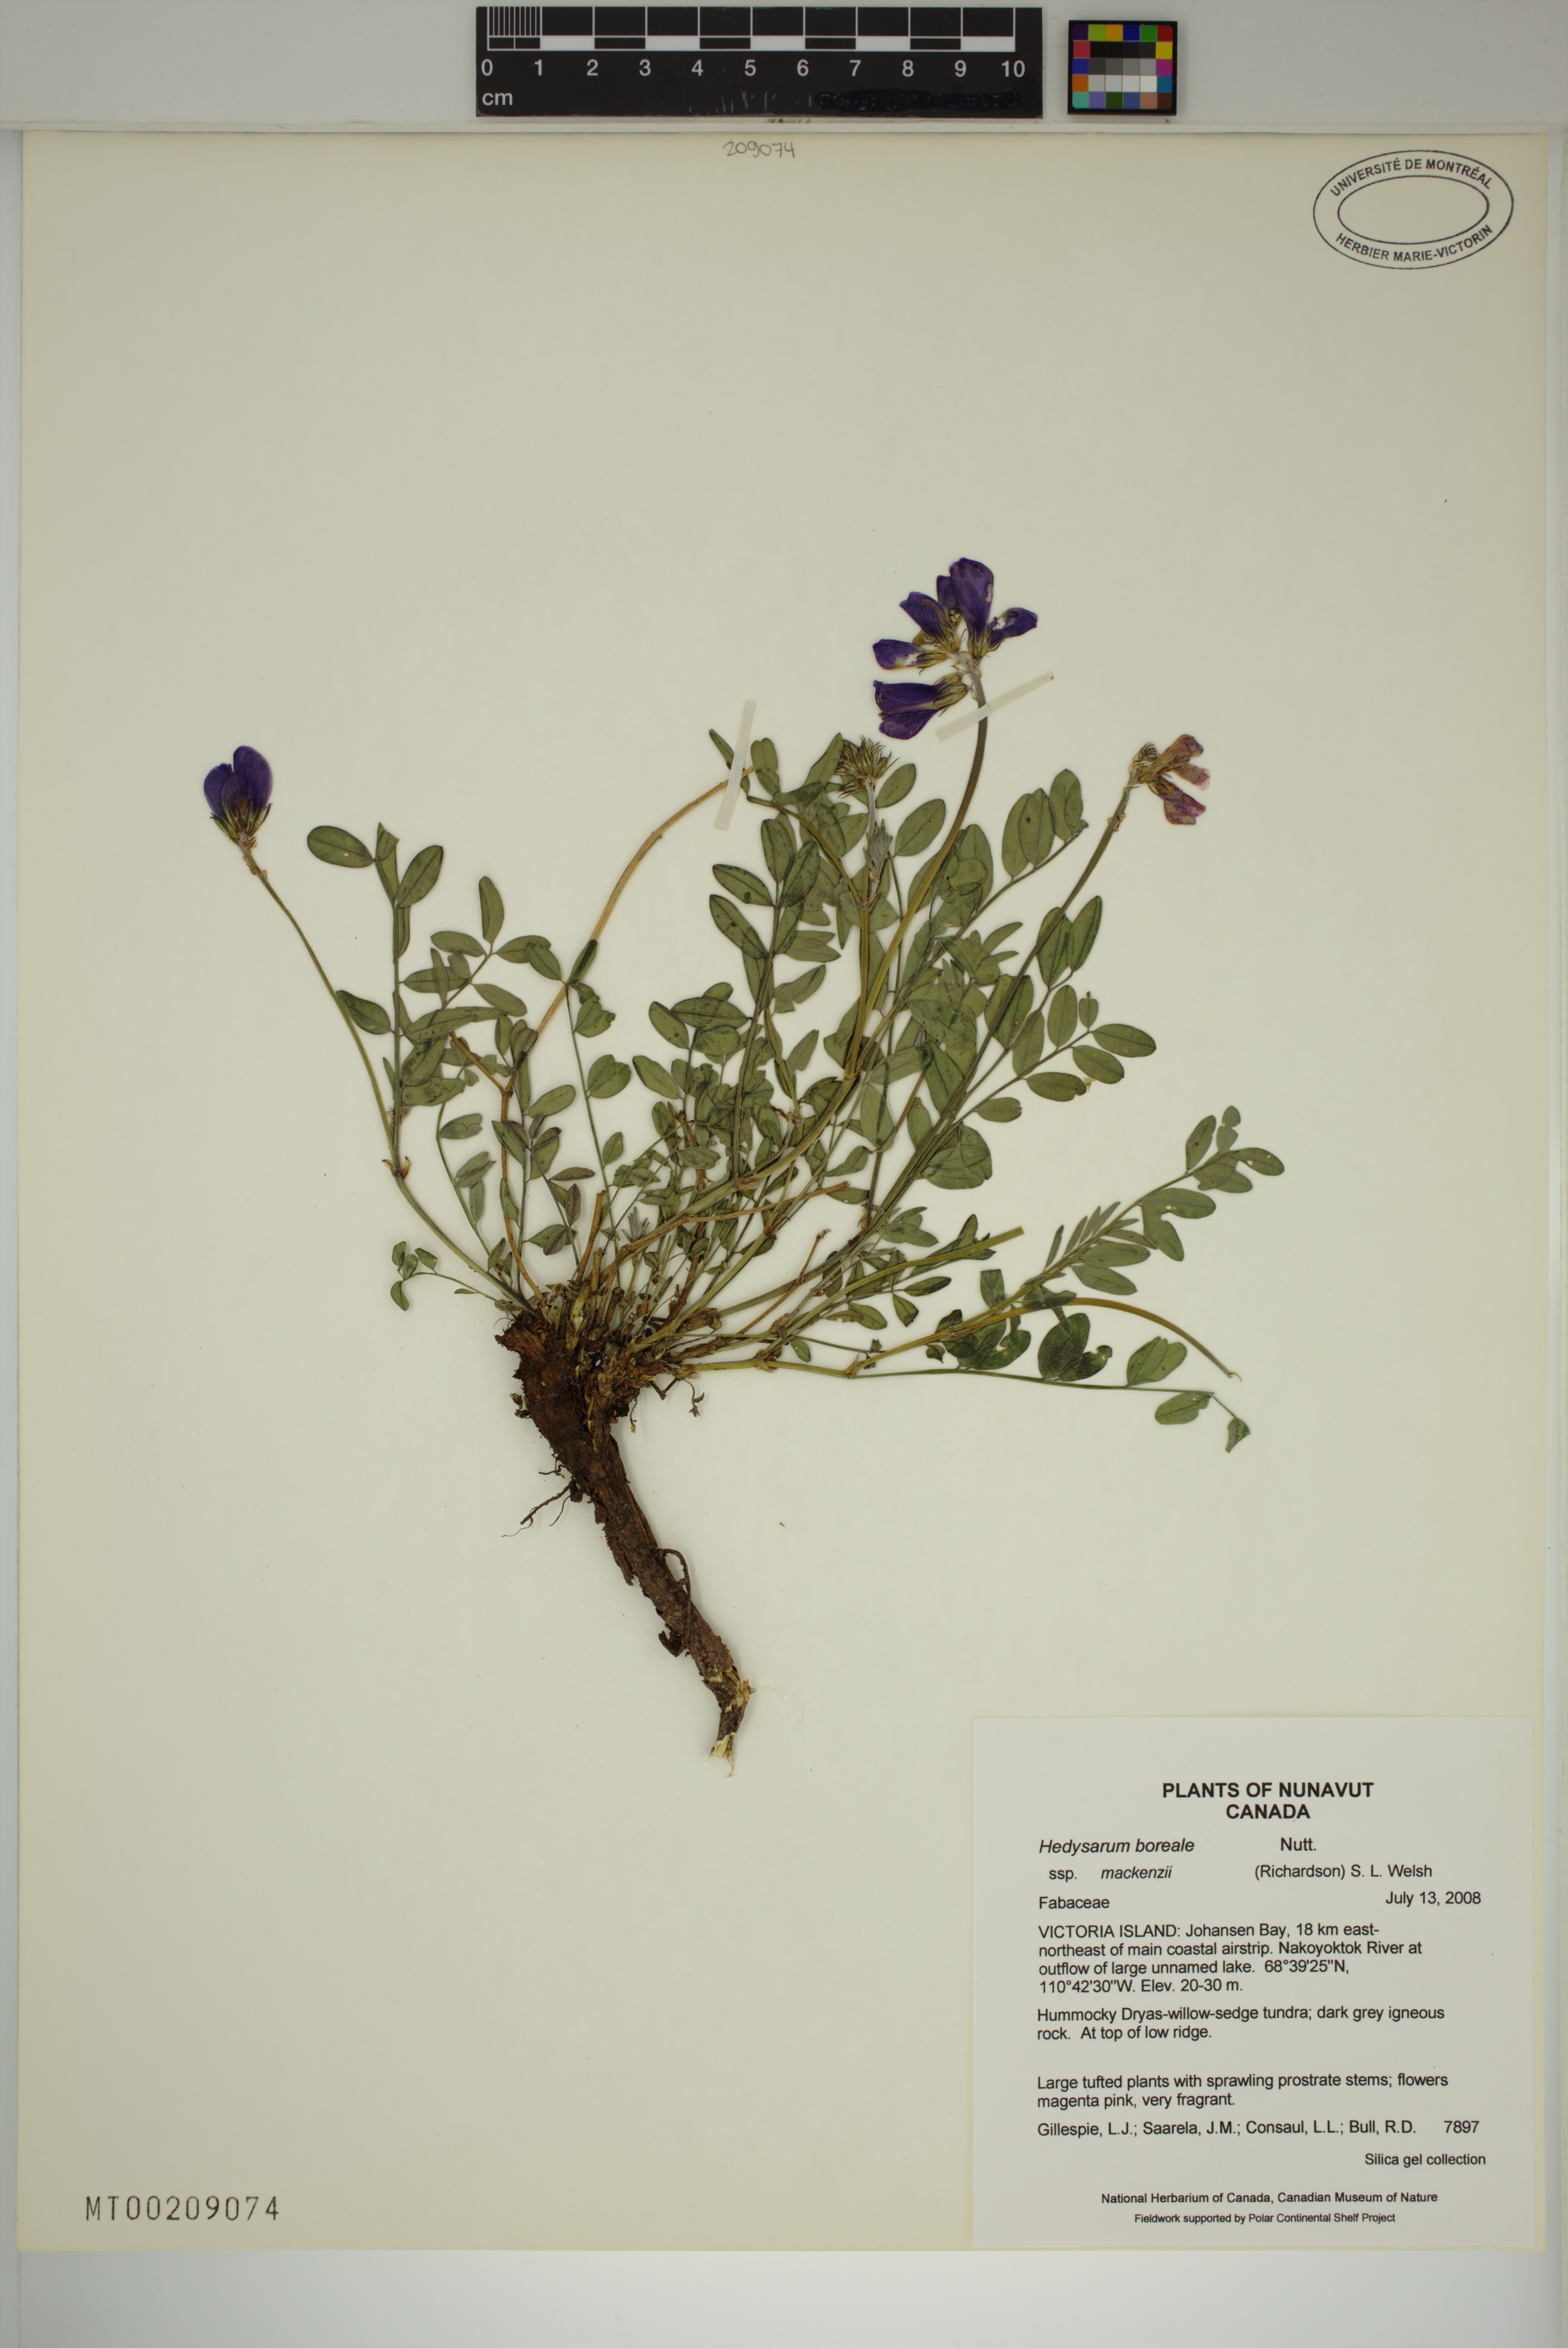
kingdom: Plantae
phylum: Tracheophyta
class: Magnoliopsida
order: Fabales
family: Fabaceae
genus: Hedysarum
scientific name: Hedysarum boreale
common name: Northern sweet-vetch
